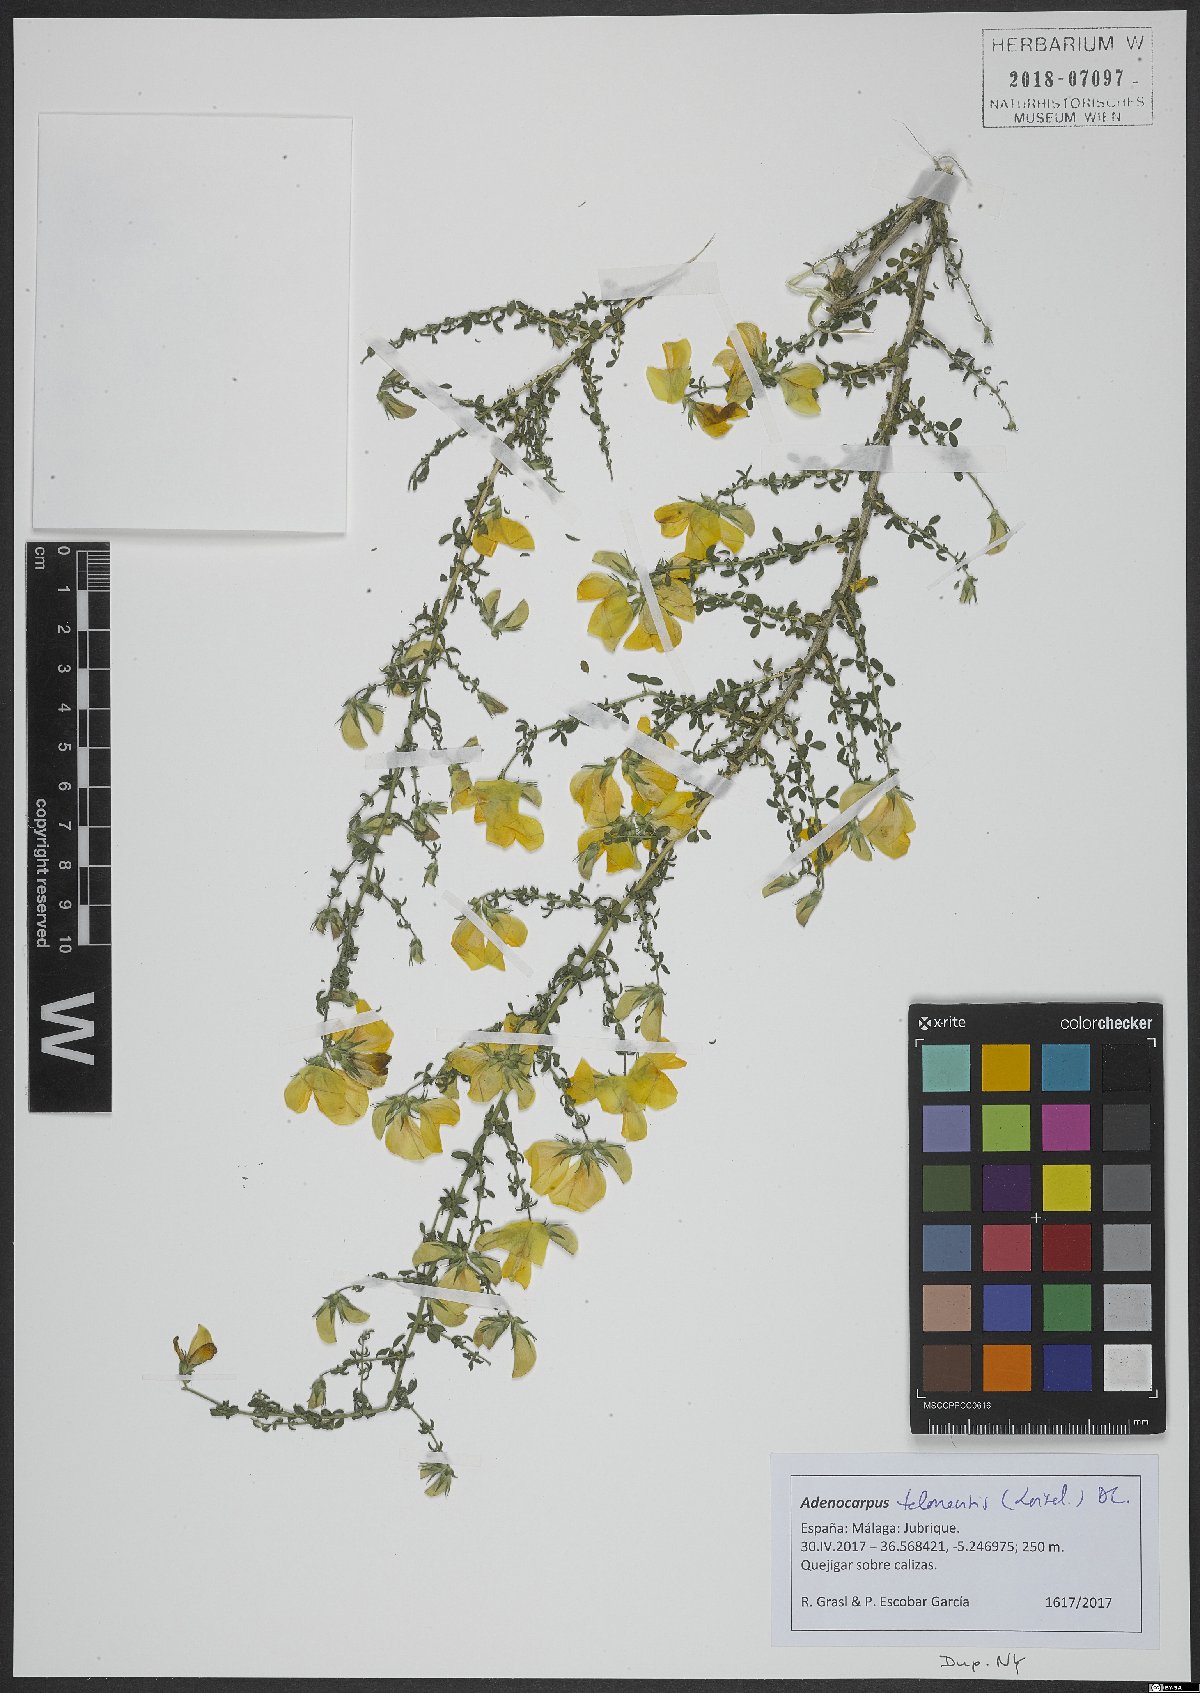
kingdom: Plantae
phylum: Tracheophyta
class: Magnoliopsida
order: Fabales
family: Fabaceae
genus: Adenocarpus
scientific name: Adenocarpus telonensis
